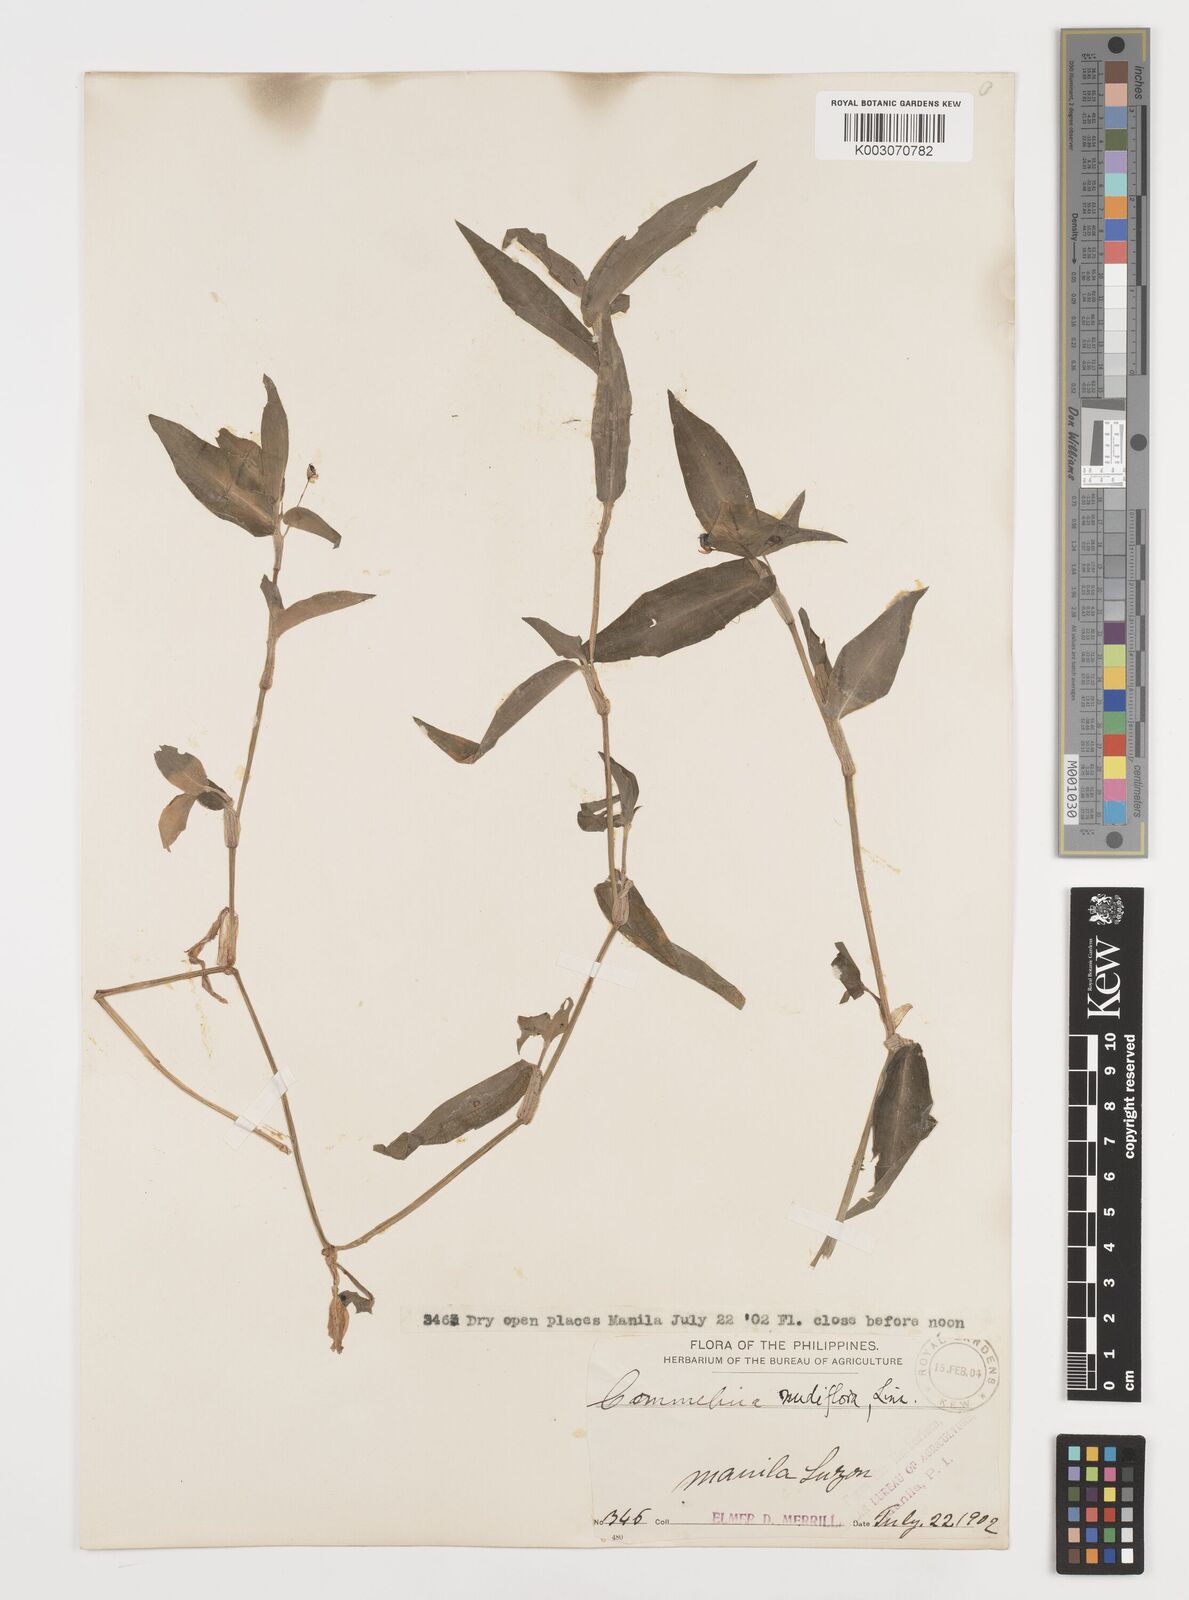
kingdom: Plantae
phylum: Tracheophyta
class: Liliopsida
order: Commelinales
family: Commelinaceae
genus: Murdannia
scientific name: Murdannia nudiflora
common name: Nakedstem dewflower
